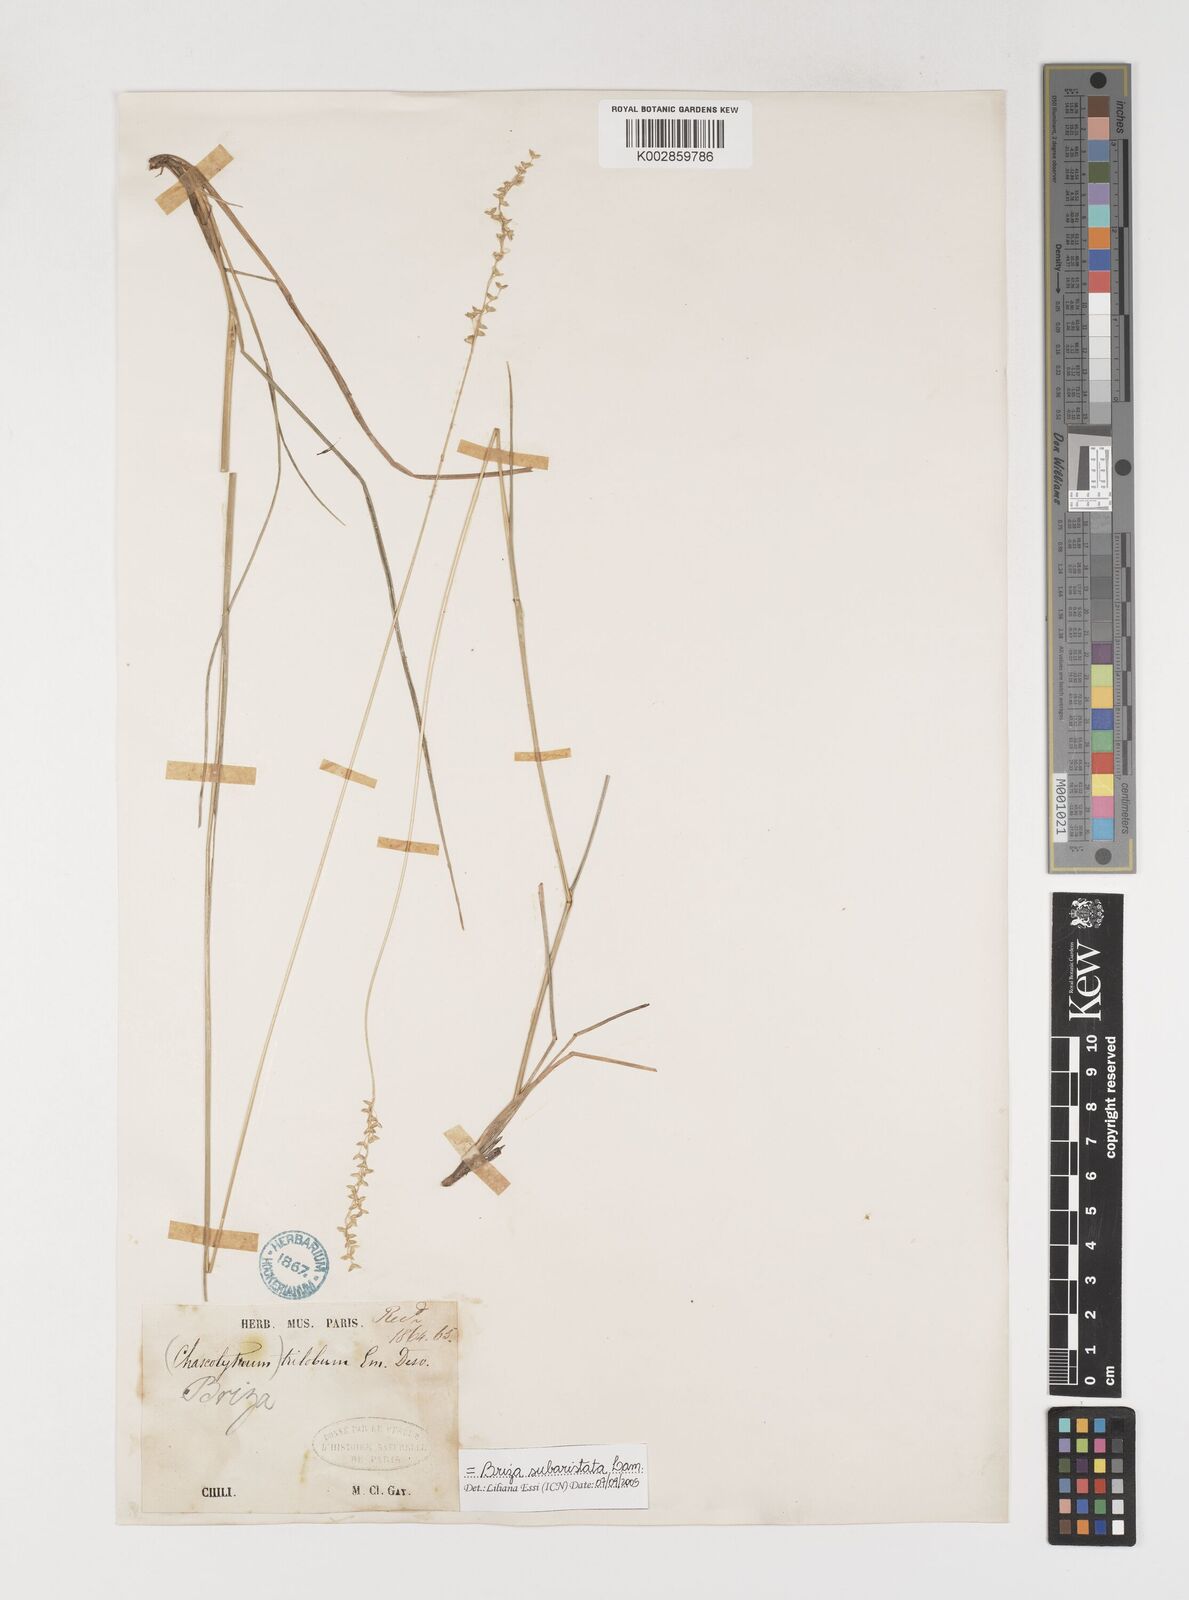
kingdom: Plantae
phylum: Tracheophyta
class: Liliopsida
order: Poales
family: Poaceae
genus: Chascolytrum
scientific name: Chascolytrum subaristatum
